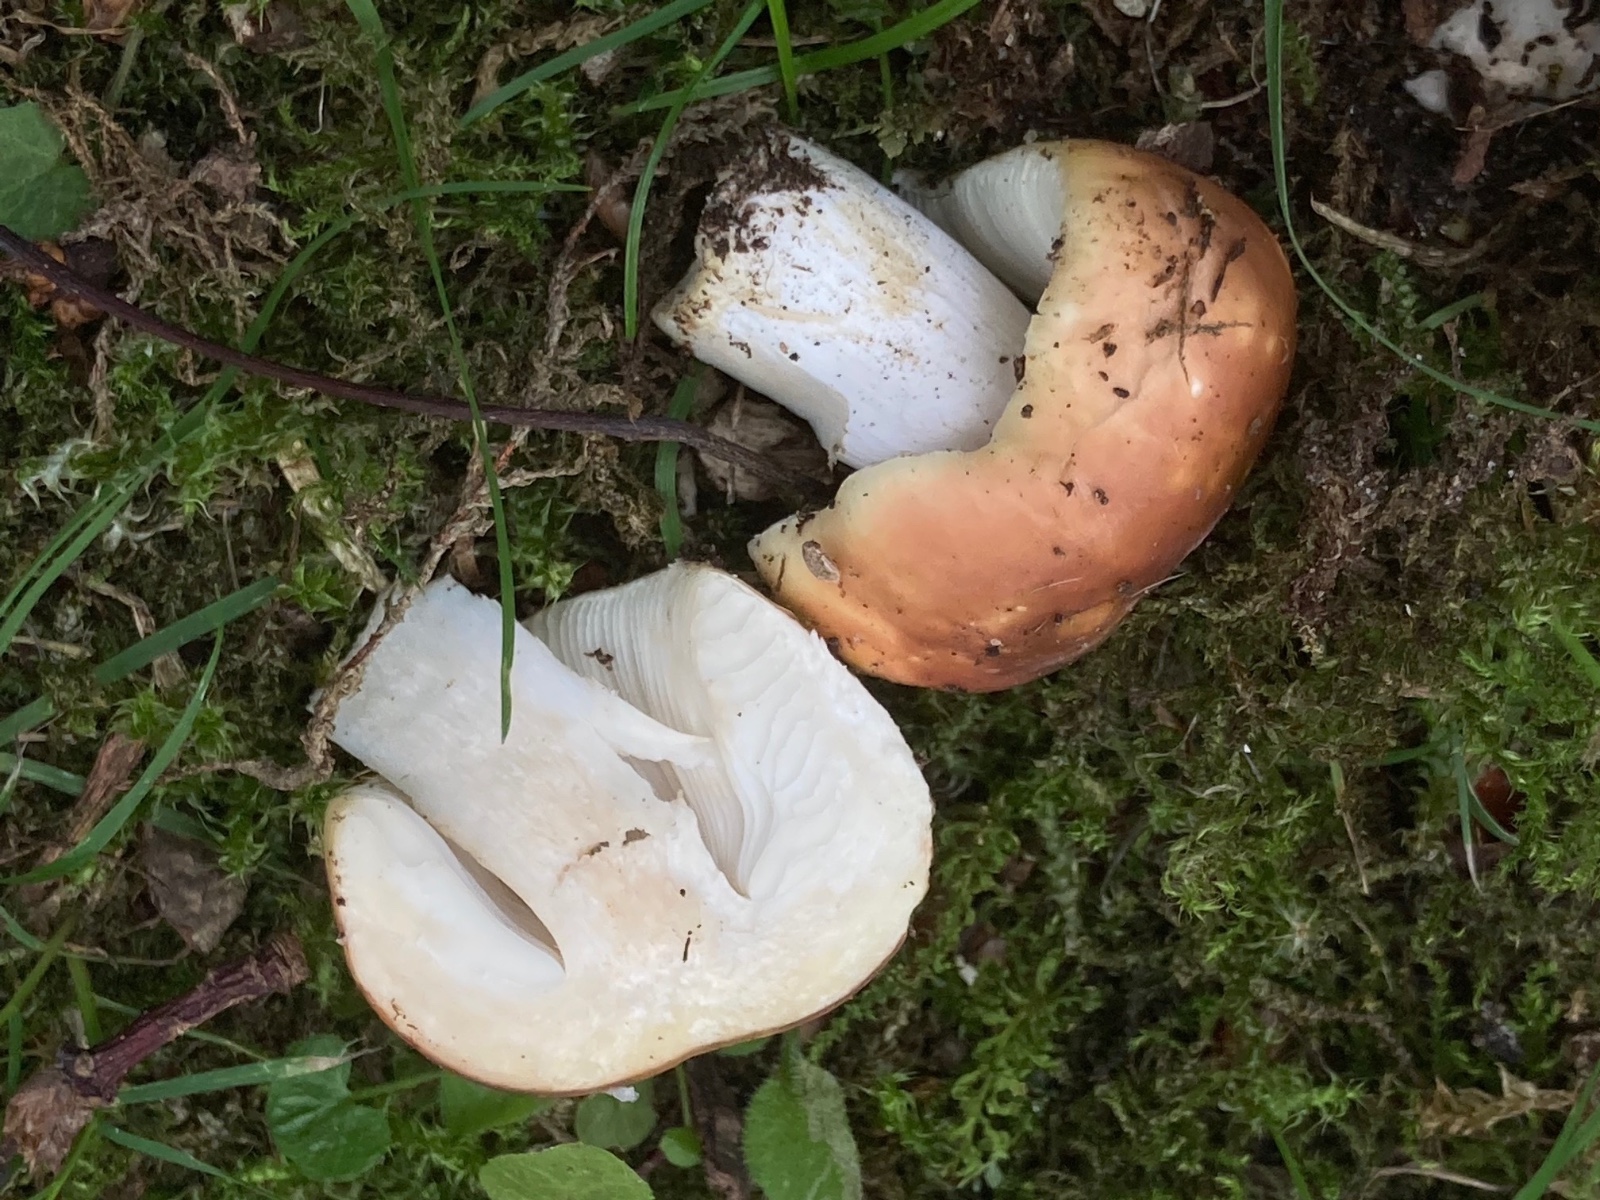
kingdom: Fungi
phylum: Basidiomycota
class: Agaricomycetes
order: Russulales
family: Russulaceae
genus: Russula
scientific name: Russula graveolens
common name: bugtet skørhat
